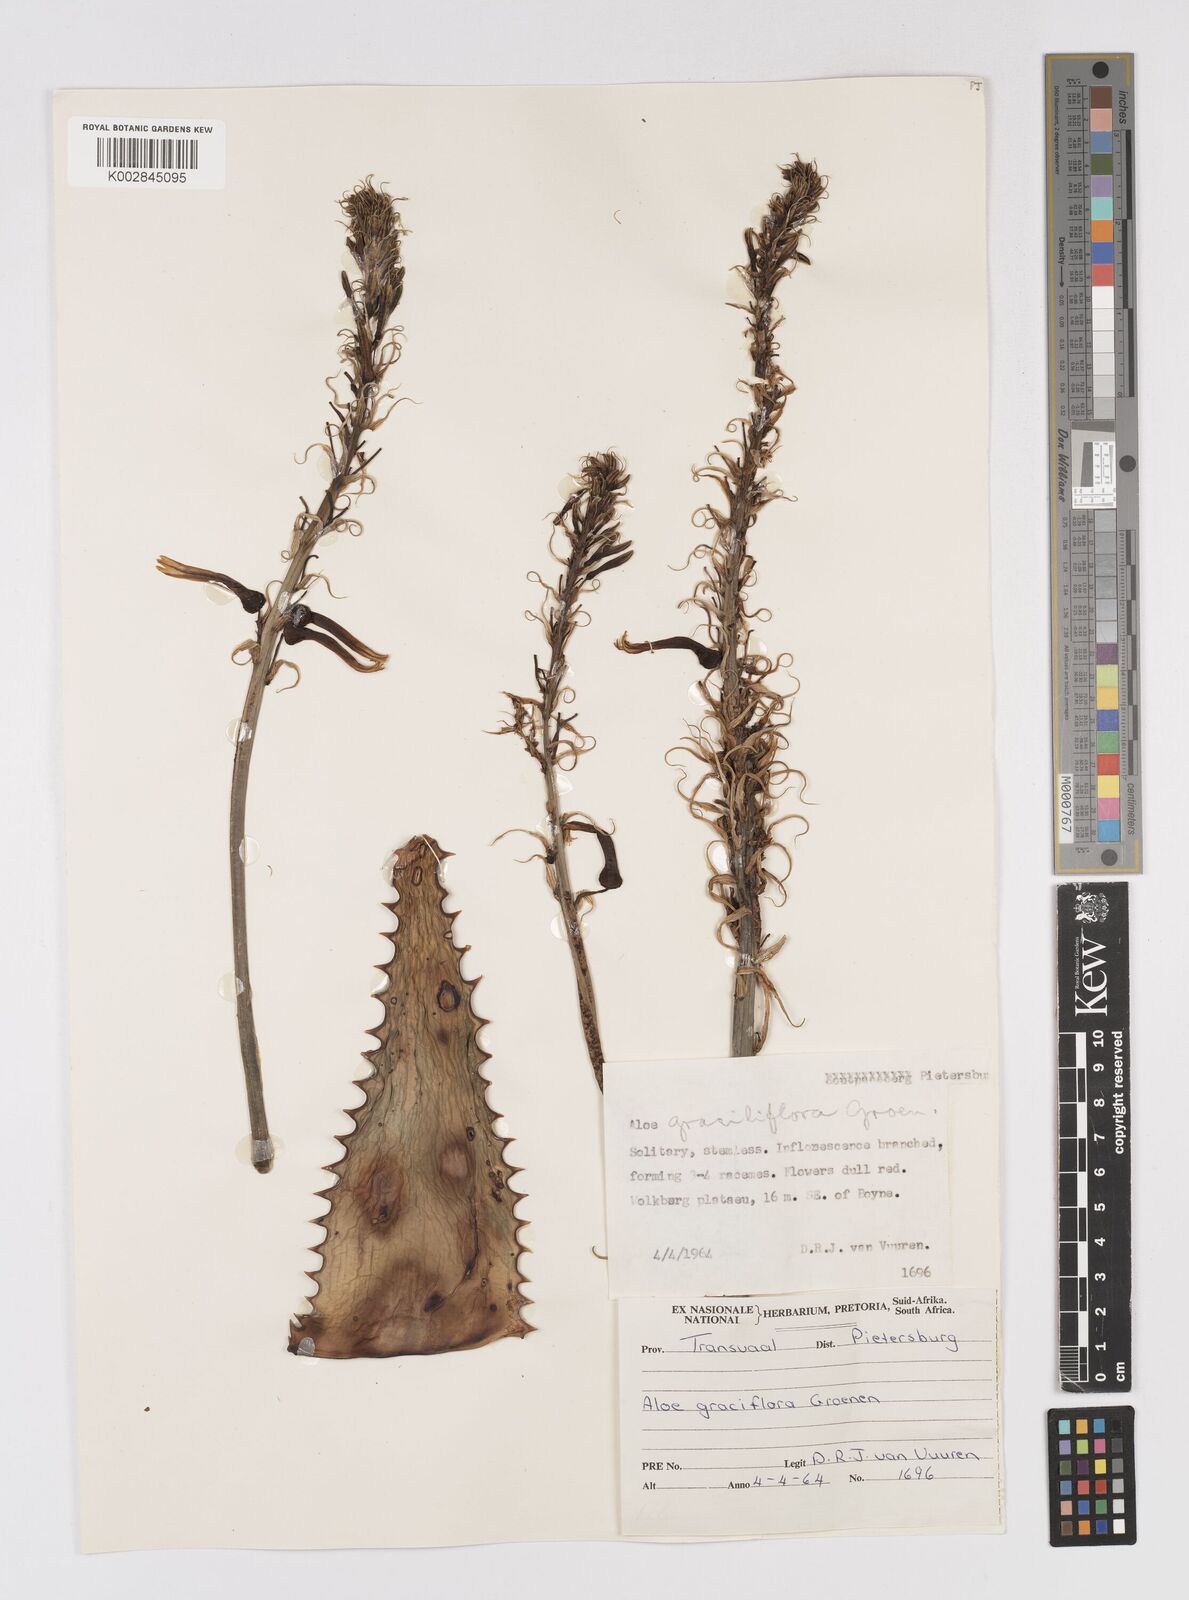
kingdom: Plantae
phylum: Tracheophyta
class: Liliopsida
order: Asparagales
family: Asphodelaceae
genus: Aloe
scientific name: Aloe graciliflora
